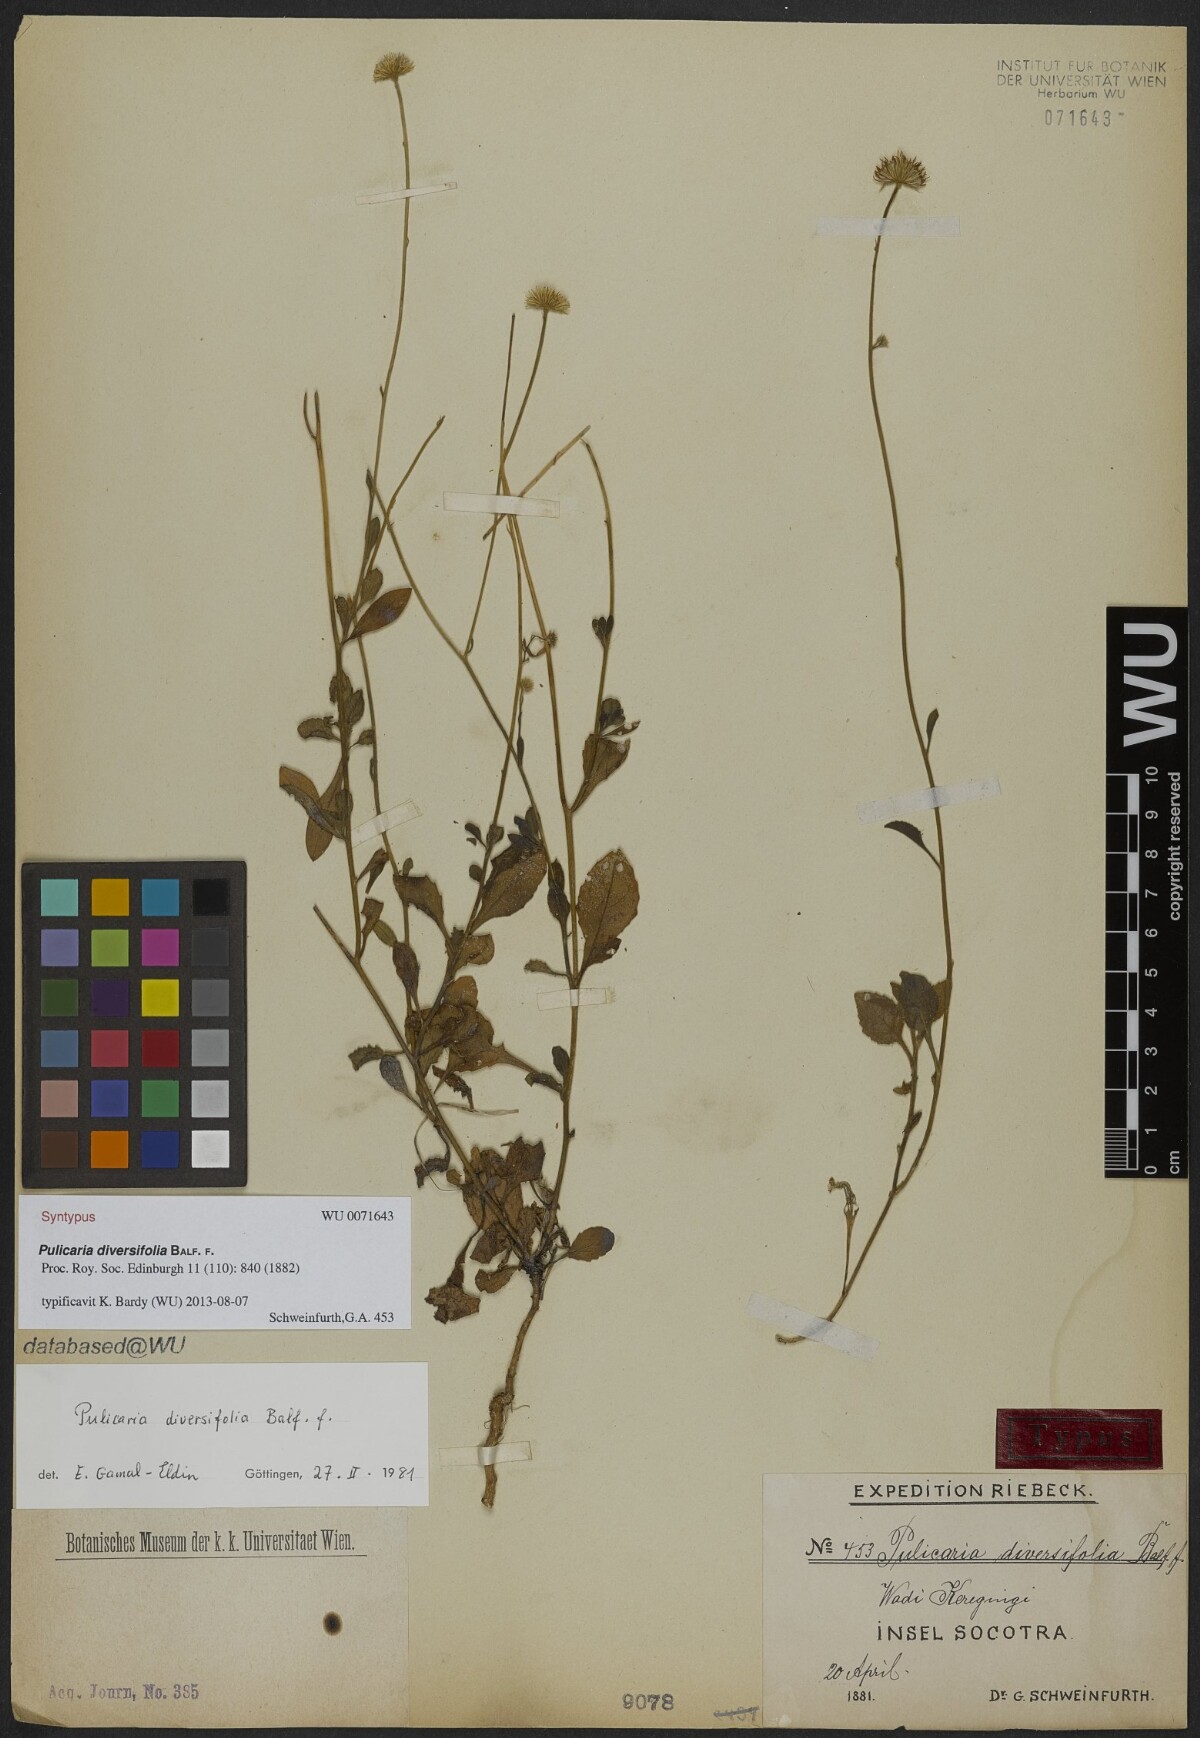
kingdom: Plantae
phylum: Tracheophyta
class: Magnoliopsida
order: Asterales
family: Asteraceae
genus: Pulicaria
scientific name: Pulicaria diversifolia
